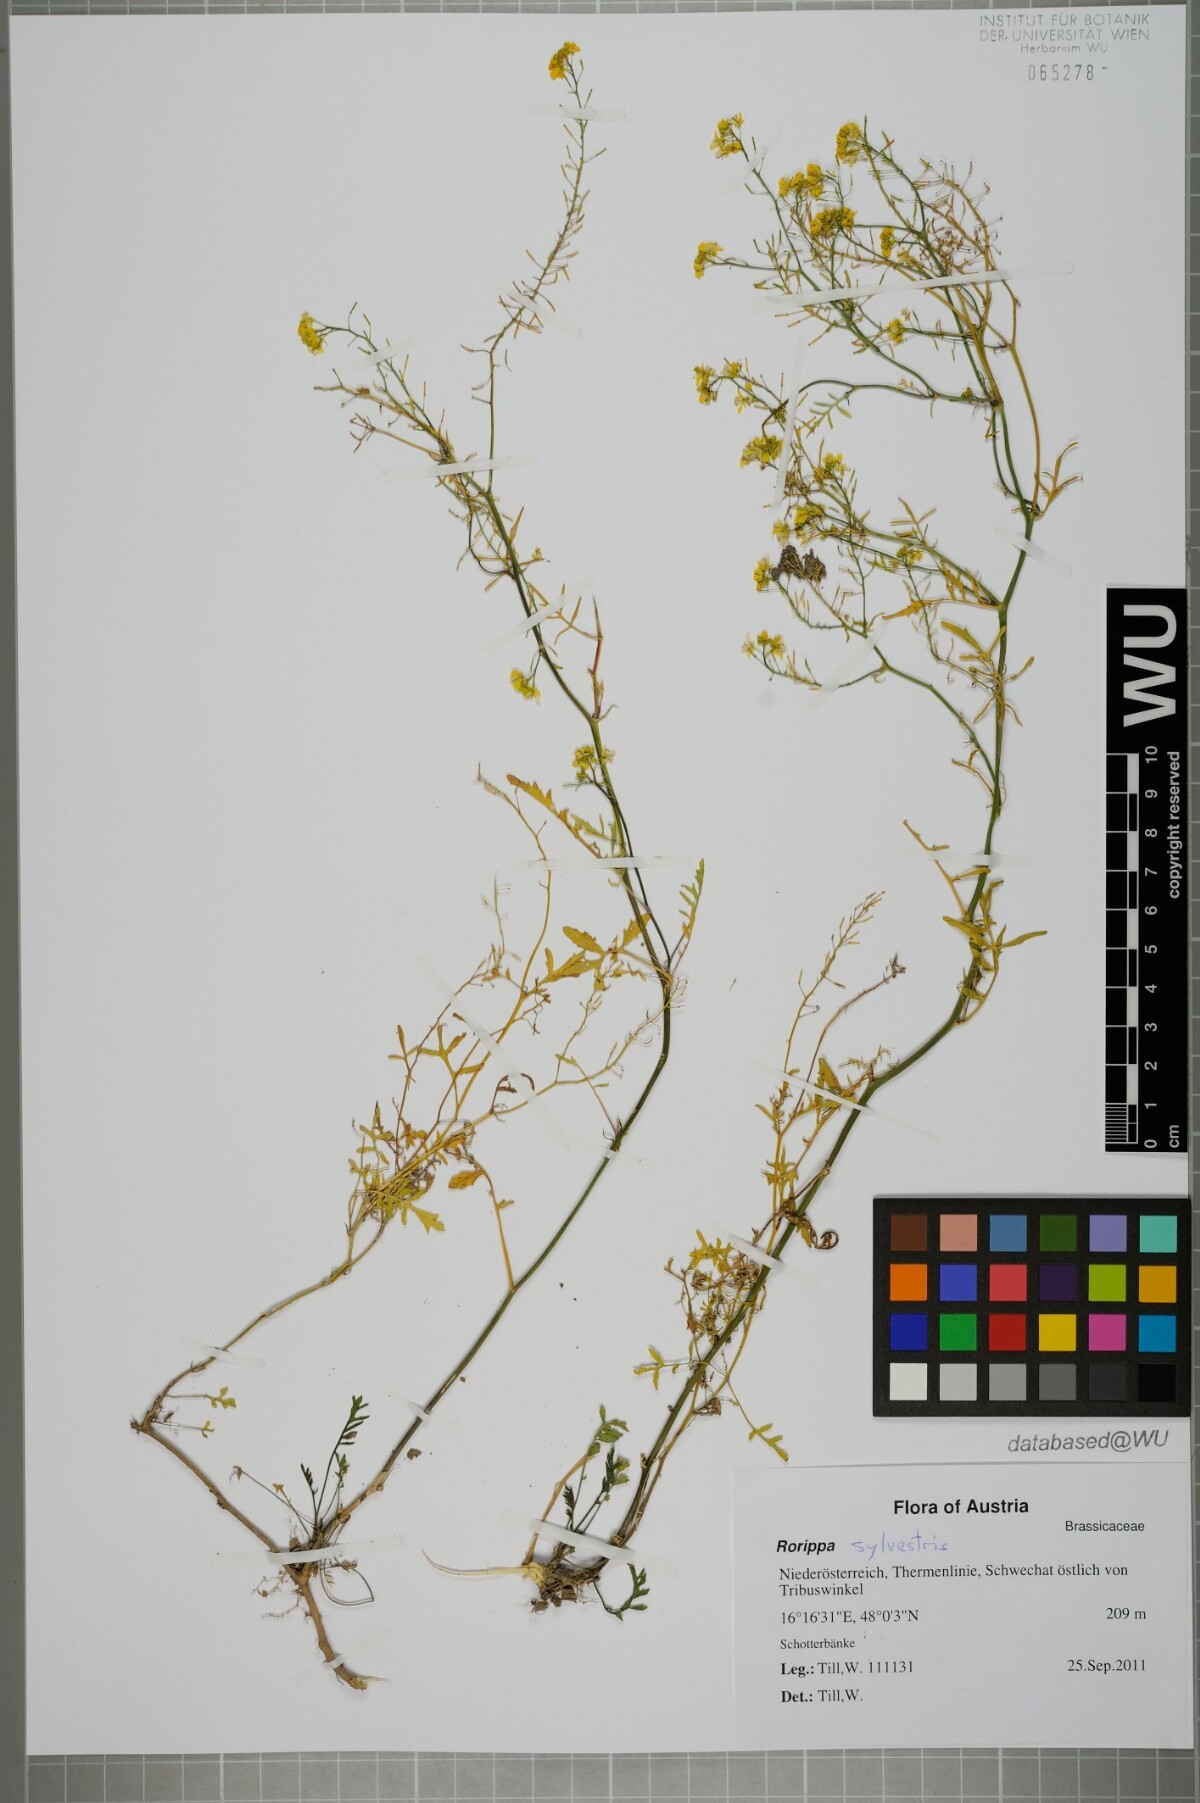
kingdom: Plantae
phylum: Tracheophyta
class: Magnoliopsida
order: Brassicales
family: Brassicaceae
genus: Rorippa
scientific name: Rorippa sylvestris
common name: Creeping yellowcress
